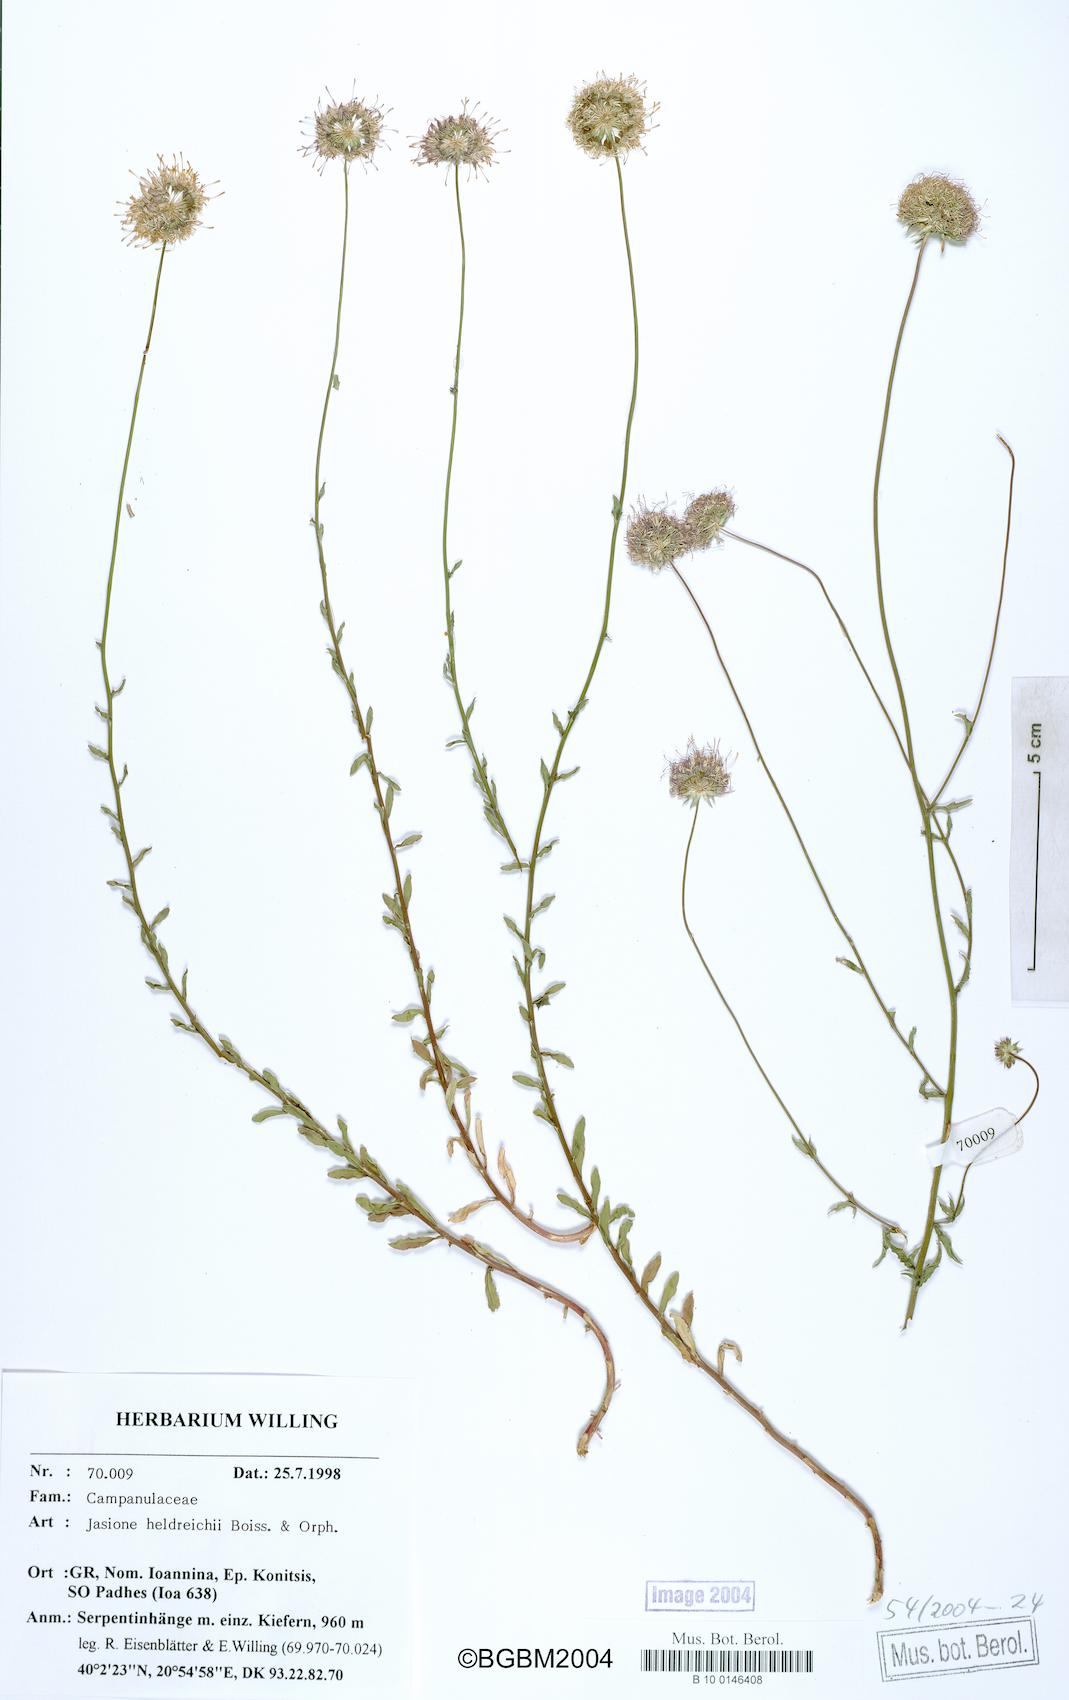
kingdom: Plantae
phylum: Tracheophyta
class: Magnoliopsida
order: Asterales
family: Campanulaceae
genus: Jasione
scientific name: Jasione heldreichii
